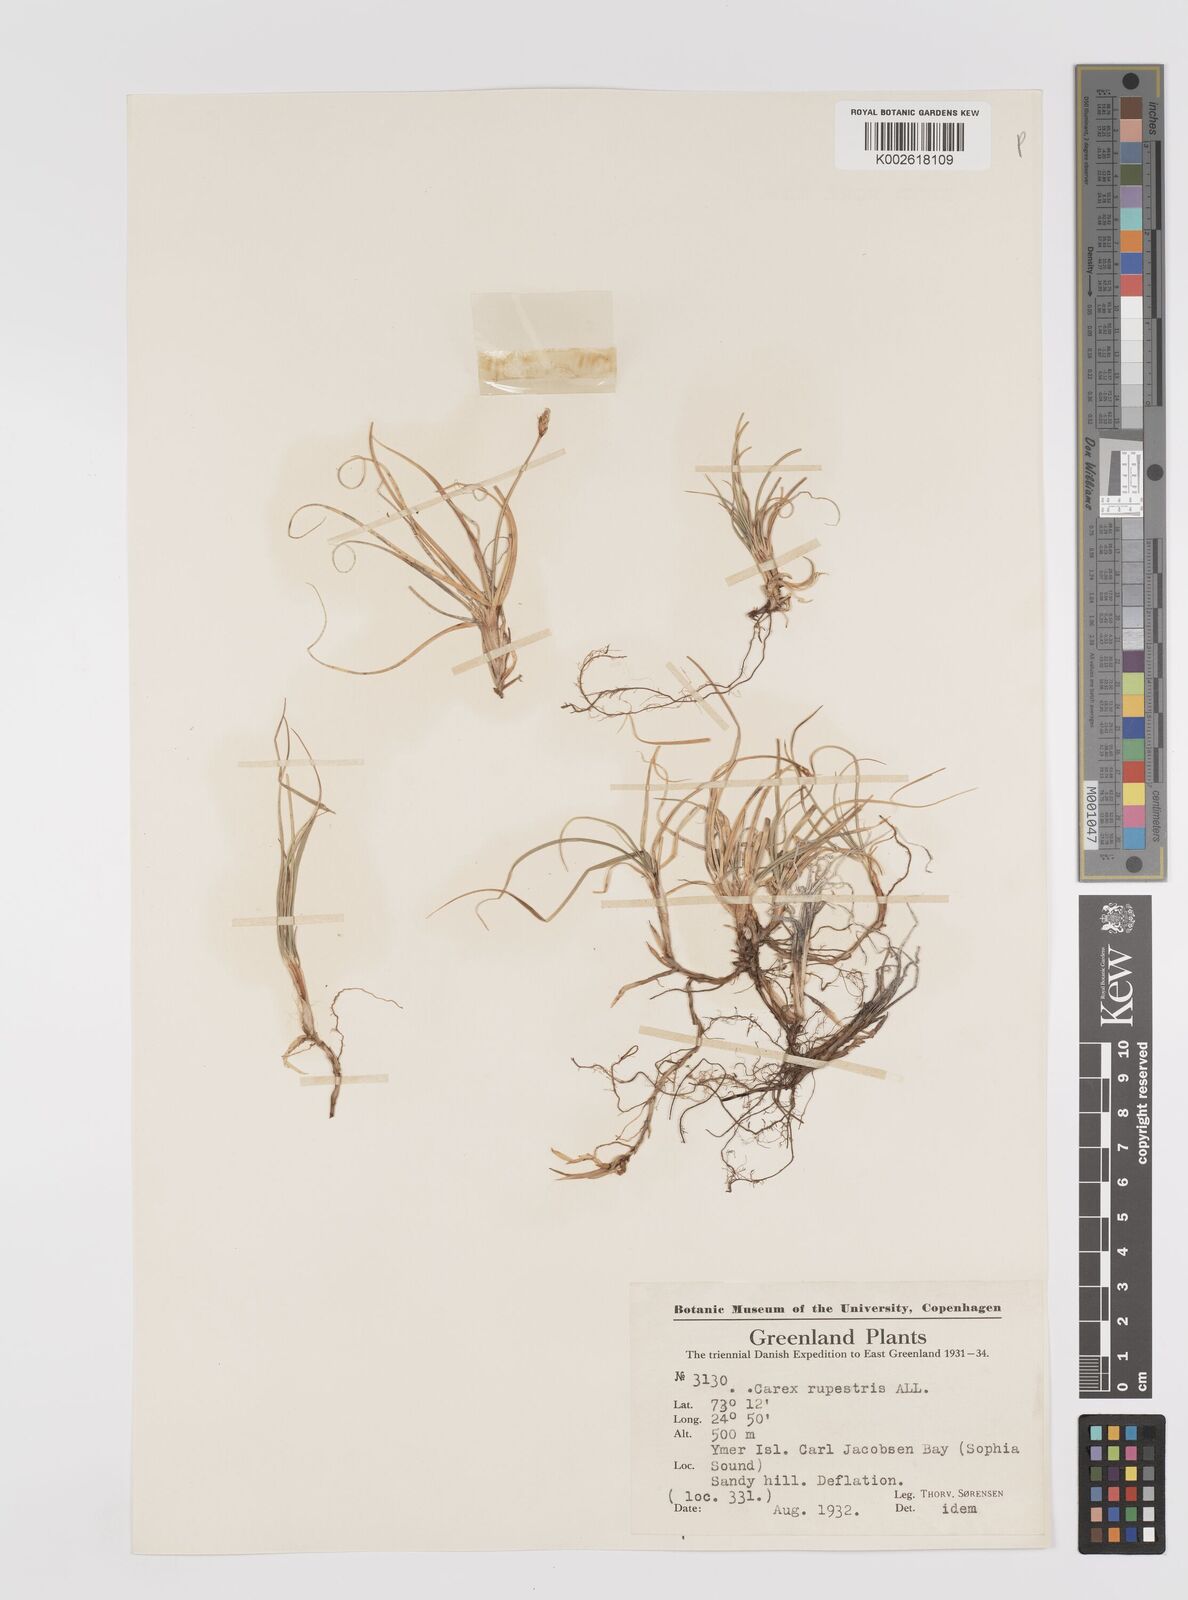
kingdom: Plantae
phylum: Tracheophyta
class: Liliopsida
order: Poales
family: Cyperaceae
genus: Carex
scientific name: Carex rupestris
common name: Rock sedge
